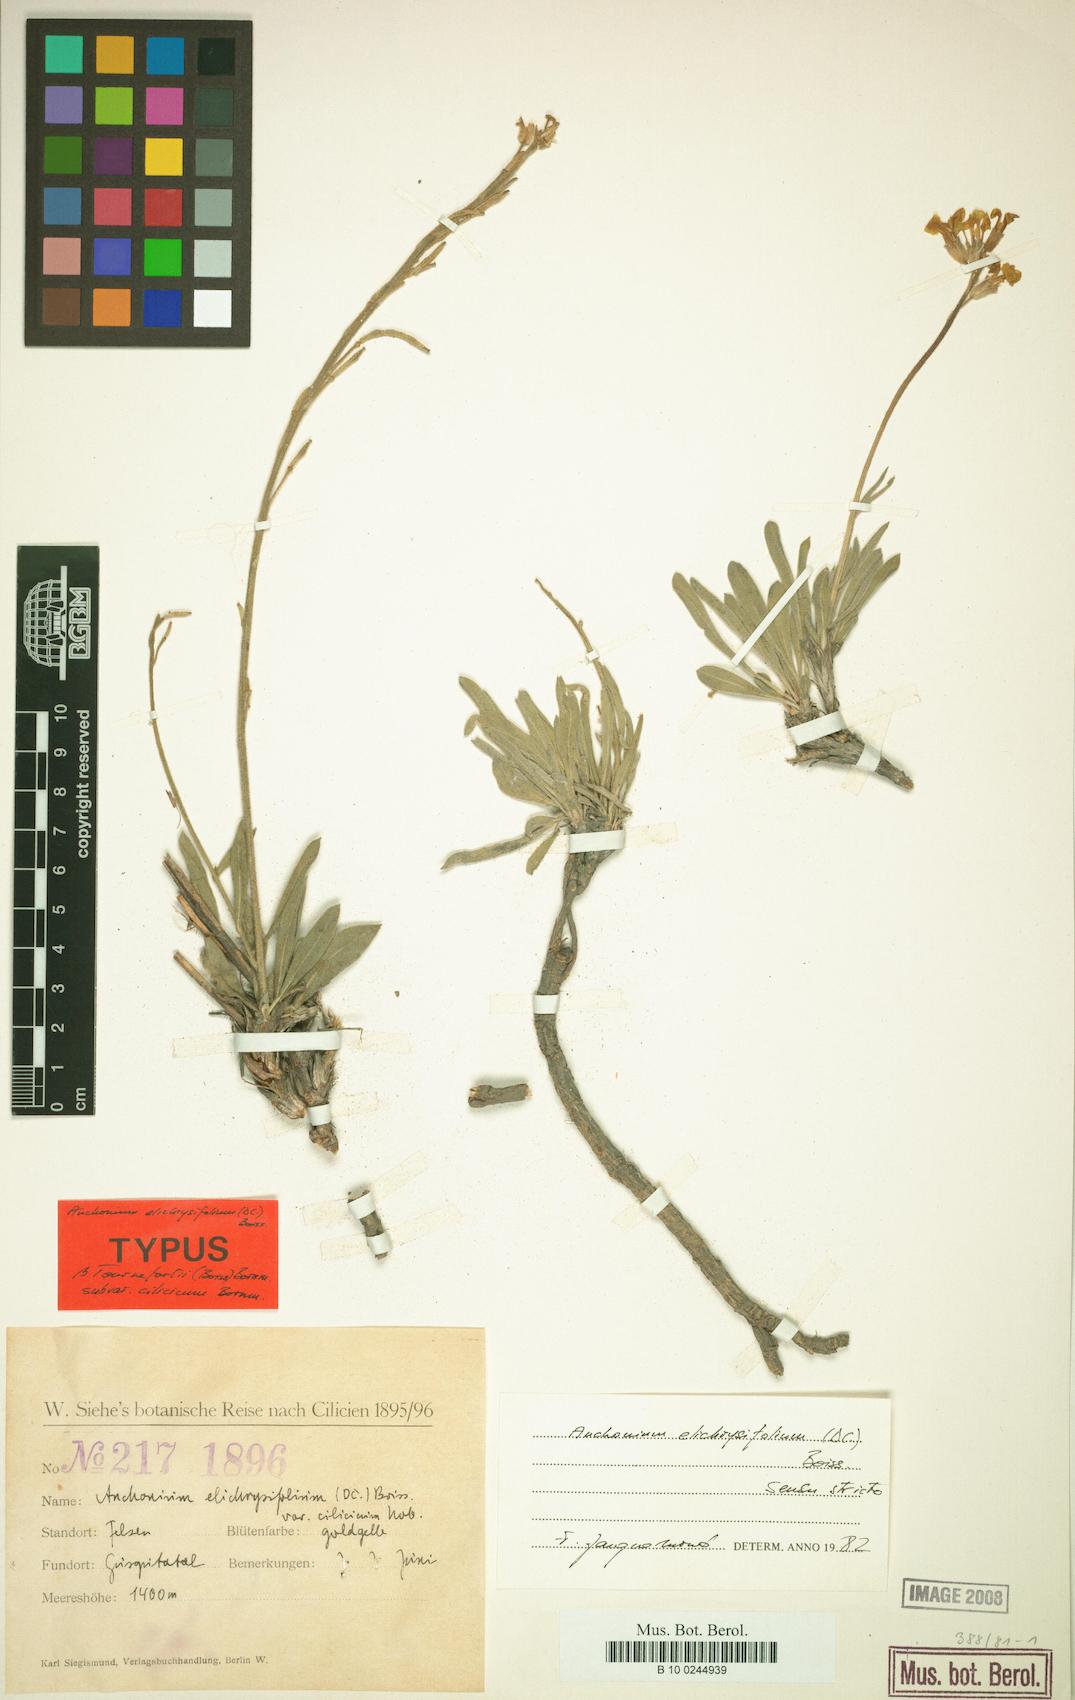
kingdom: Plantae
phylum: Tracheophyta
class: Magnoliopsida
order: Brassicales
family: Brassicaceae
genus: Anchonium
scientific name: Anchonium elichrysifolium
